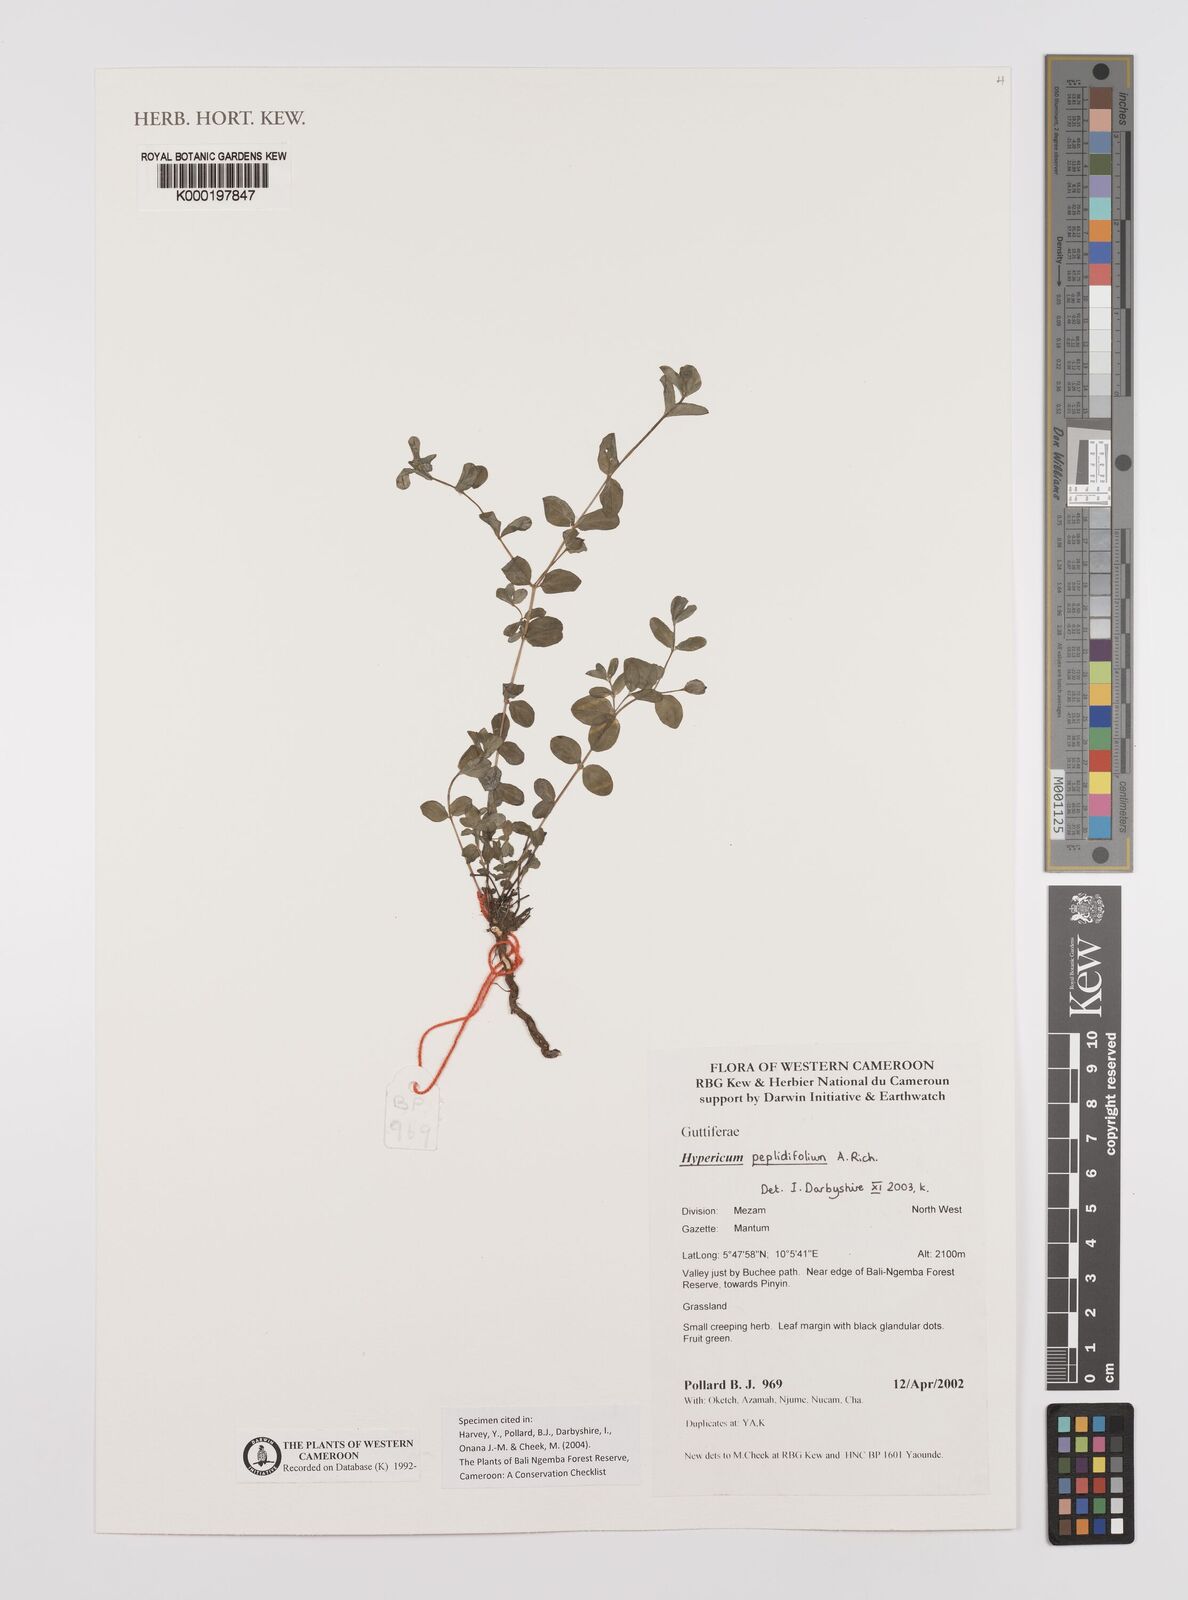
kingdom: Plantae
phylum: Tracheophyta
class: Magnoliopsida
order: Malpighiales
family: Hypericaceae
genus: Hypericum
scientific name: Hypericum peplidifolium
